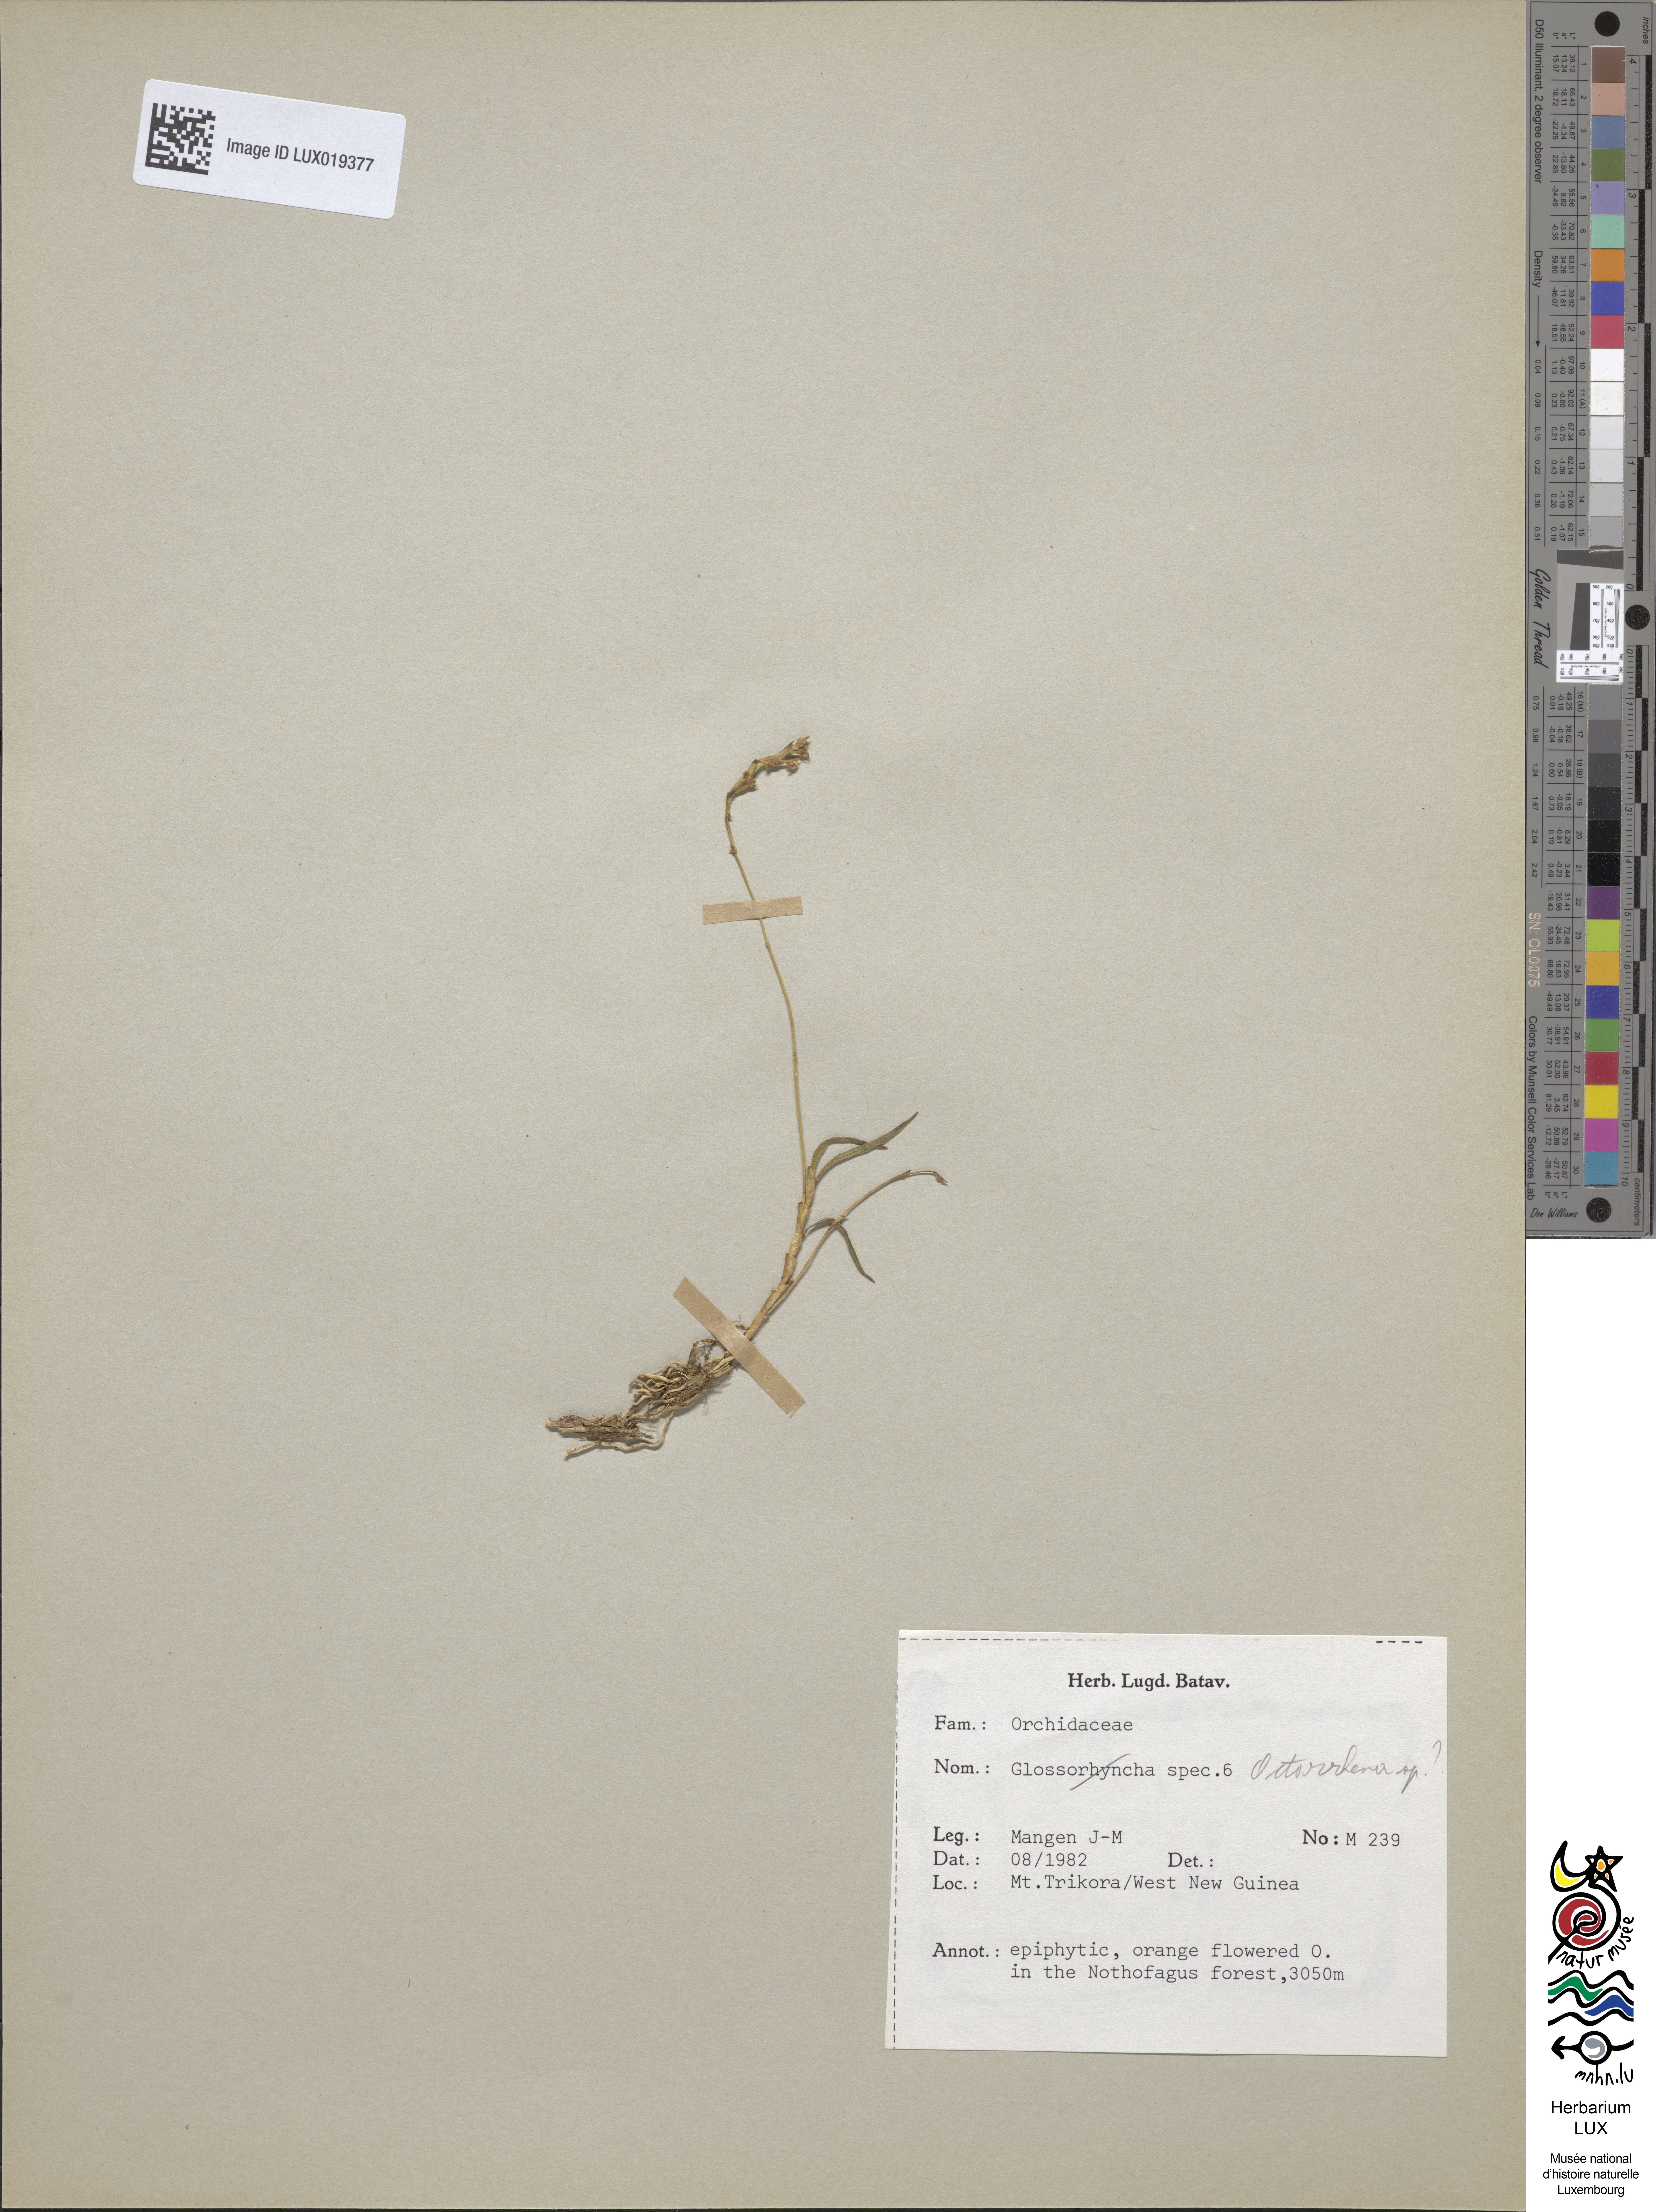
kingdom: Plantae
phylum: Tracheophyta
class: Liliopsida
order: Asparagales
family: Orchidaceae
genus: Octarrhena
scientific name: Octarrhena
